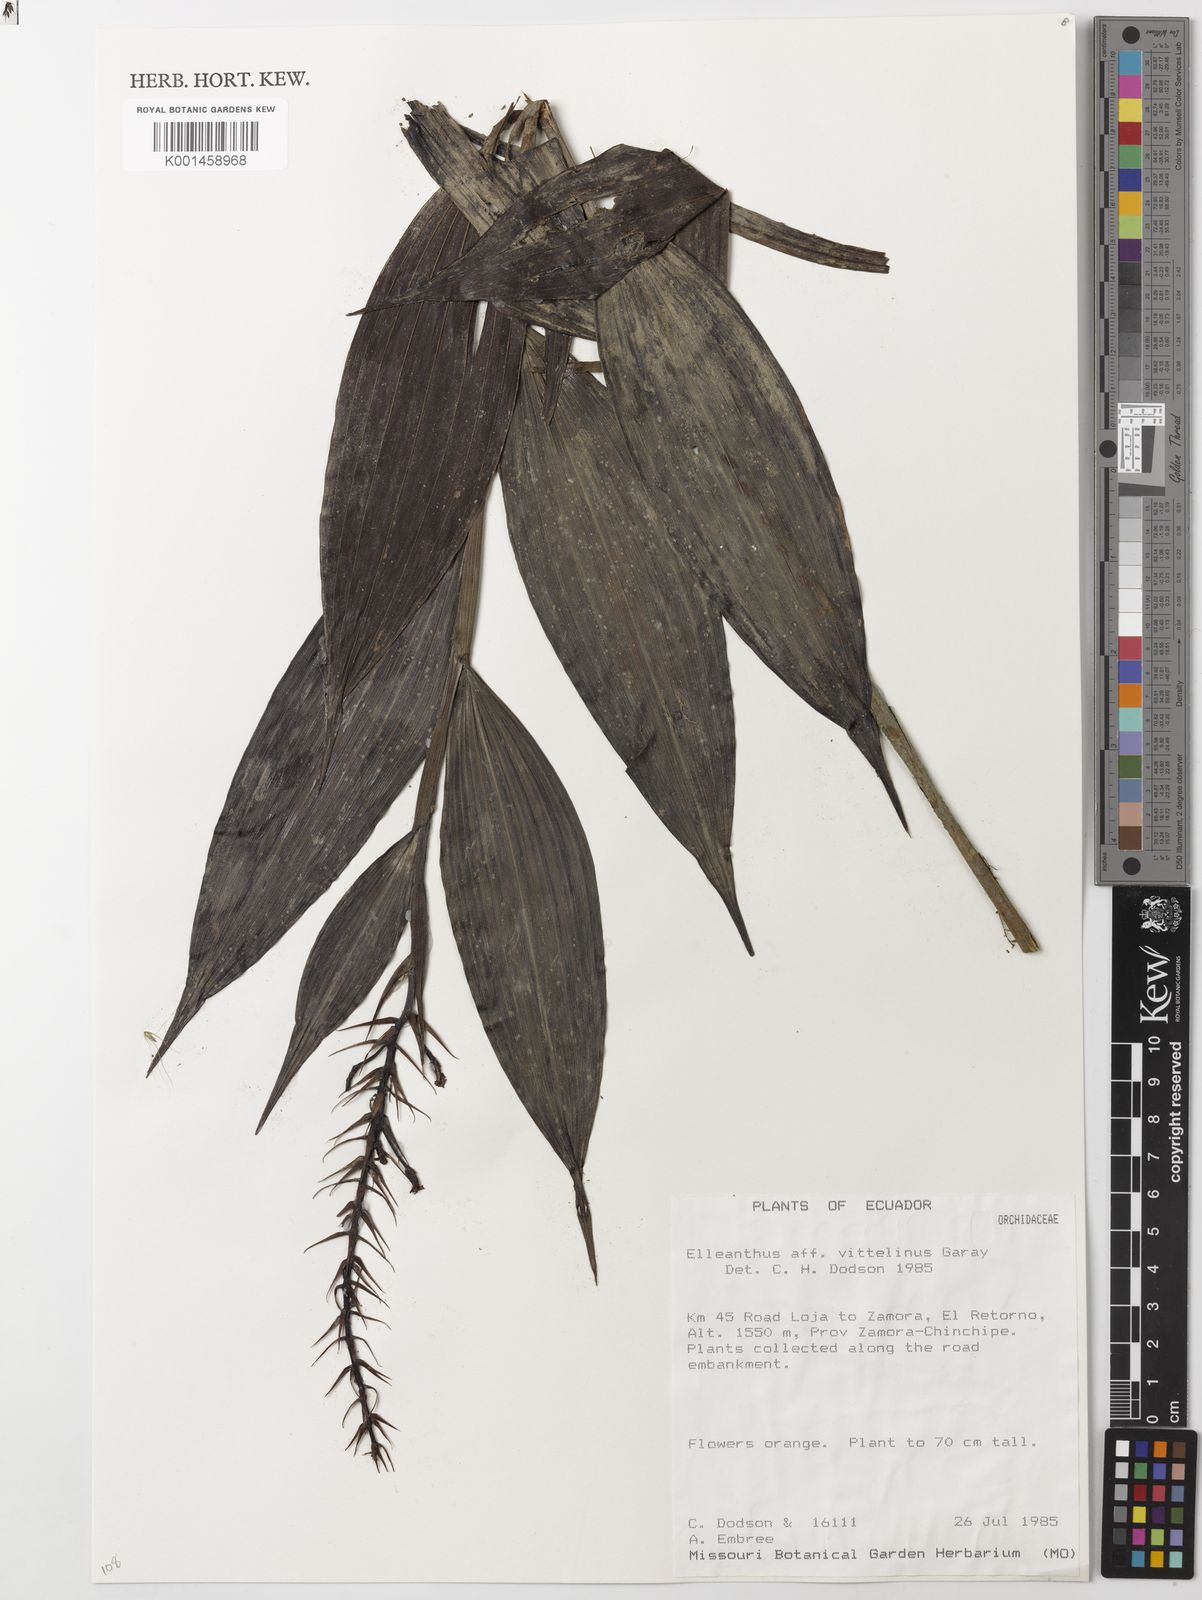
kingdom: Plantae
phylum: Tracheophyta
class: Liliopsida
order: Asparagales
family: Orchidaceae
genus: Elleanthus
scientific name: Elleanthus oliganthus
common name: Sparse blooming elleanthus
